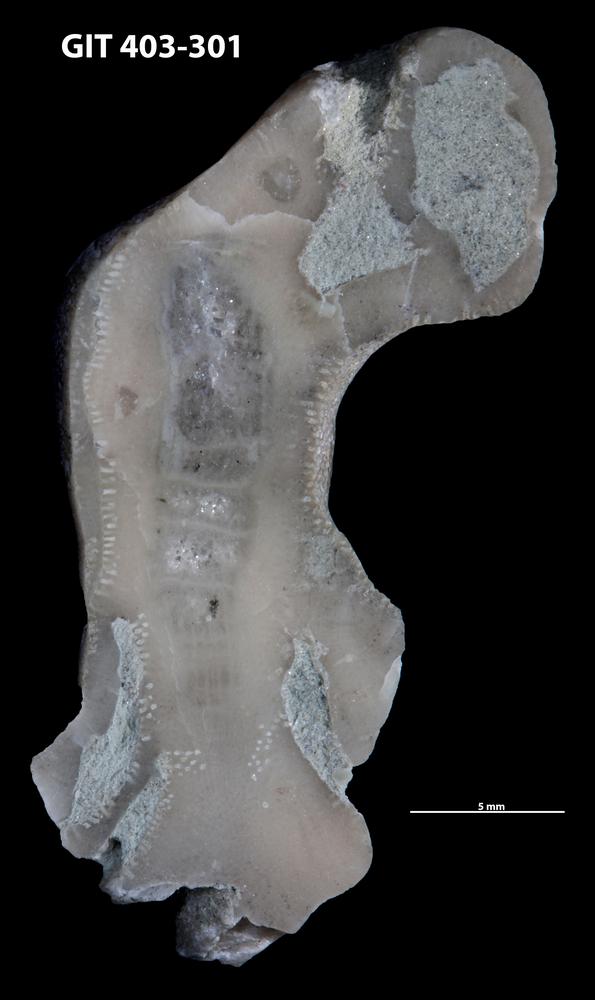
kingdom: Animalia
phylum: Cnidaria
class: Anthozoa
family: Tryplasmatidae
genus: Tryplasma
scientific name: Tryplasma
